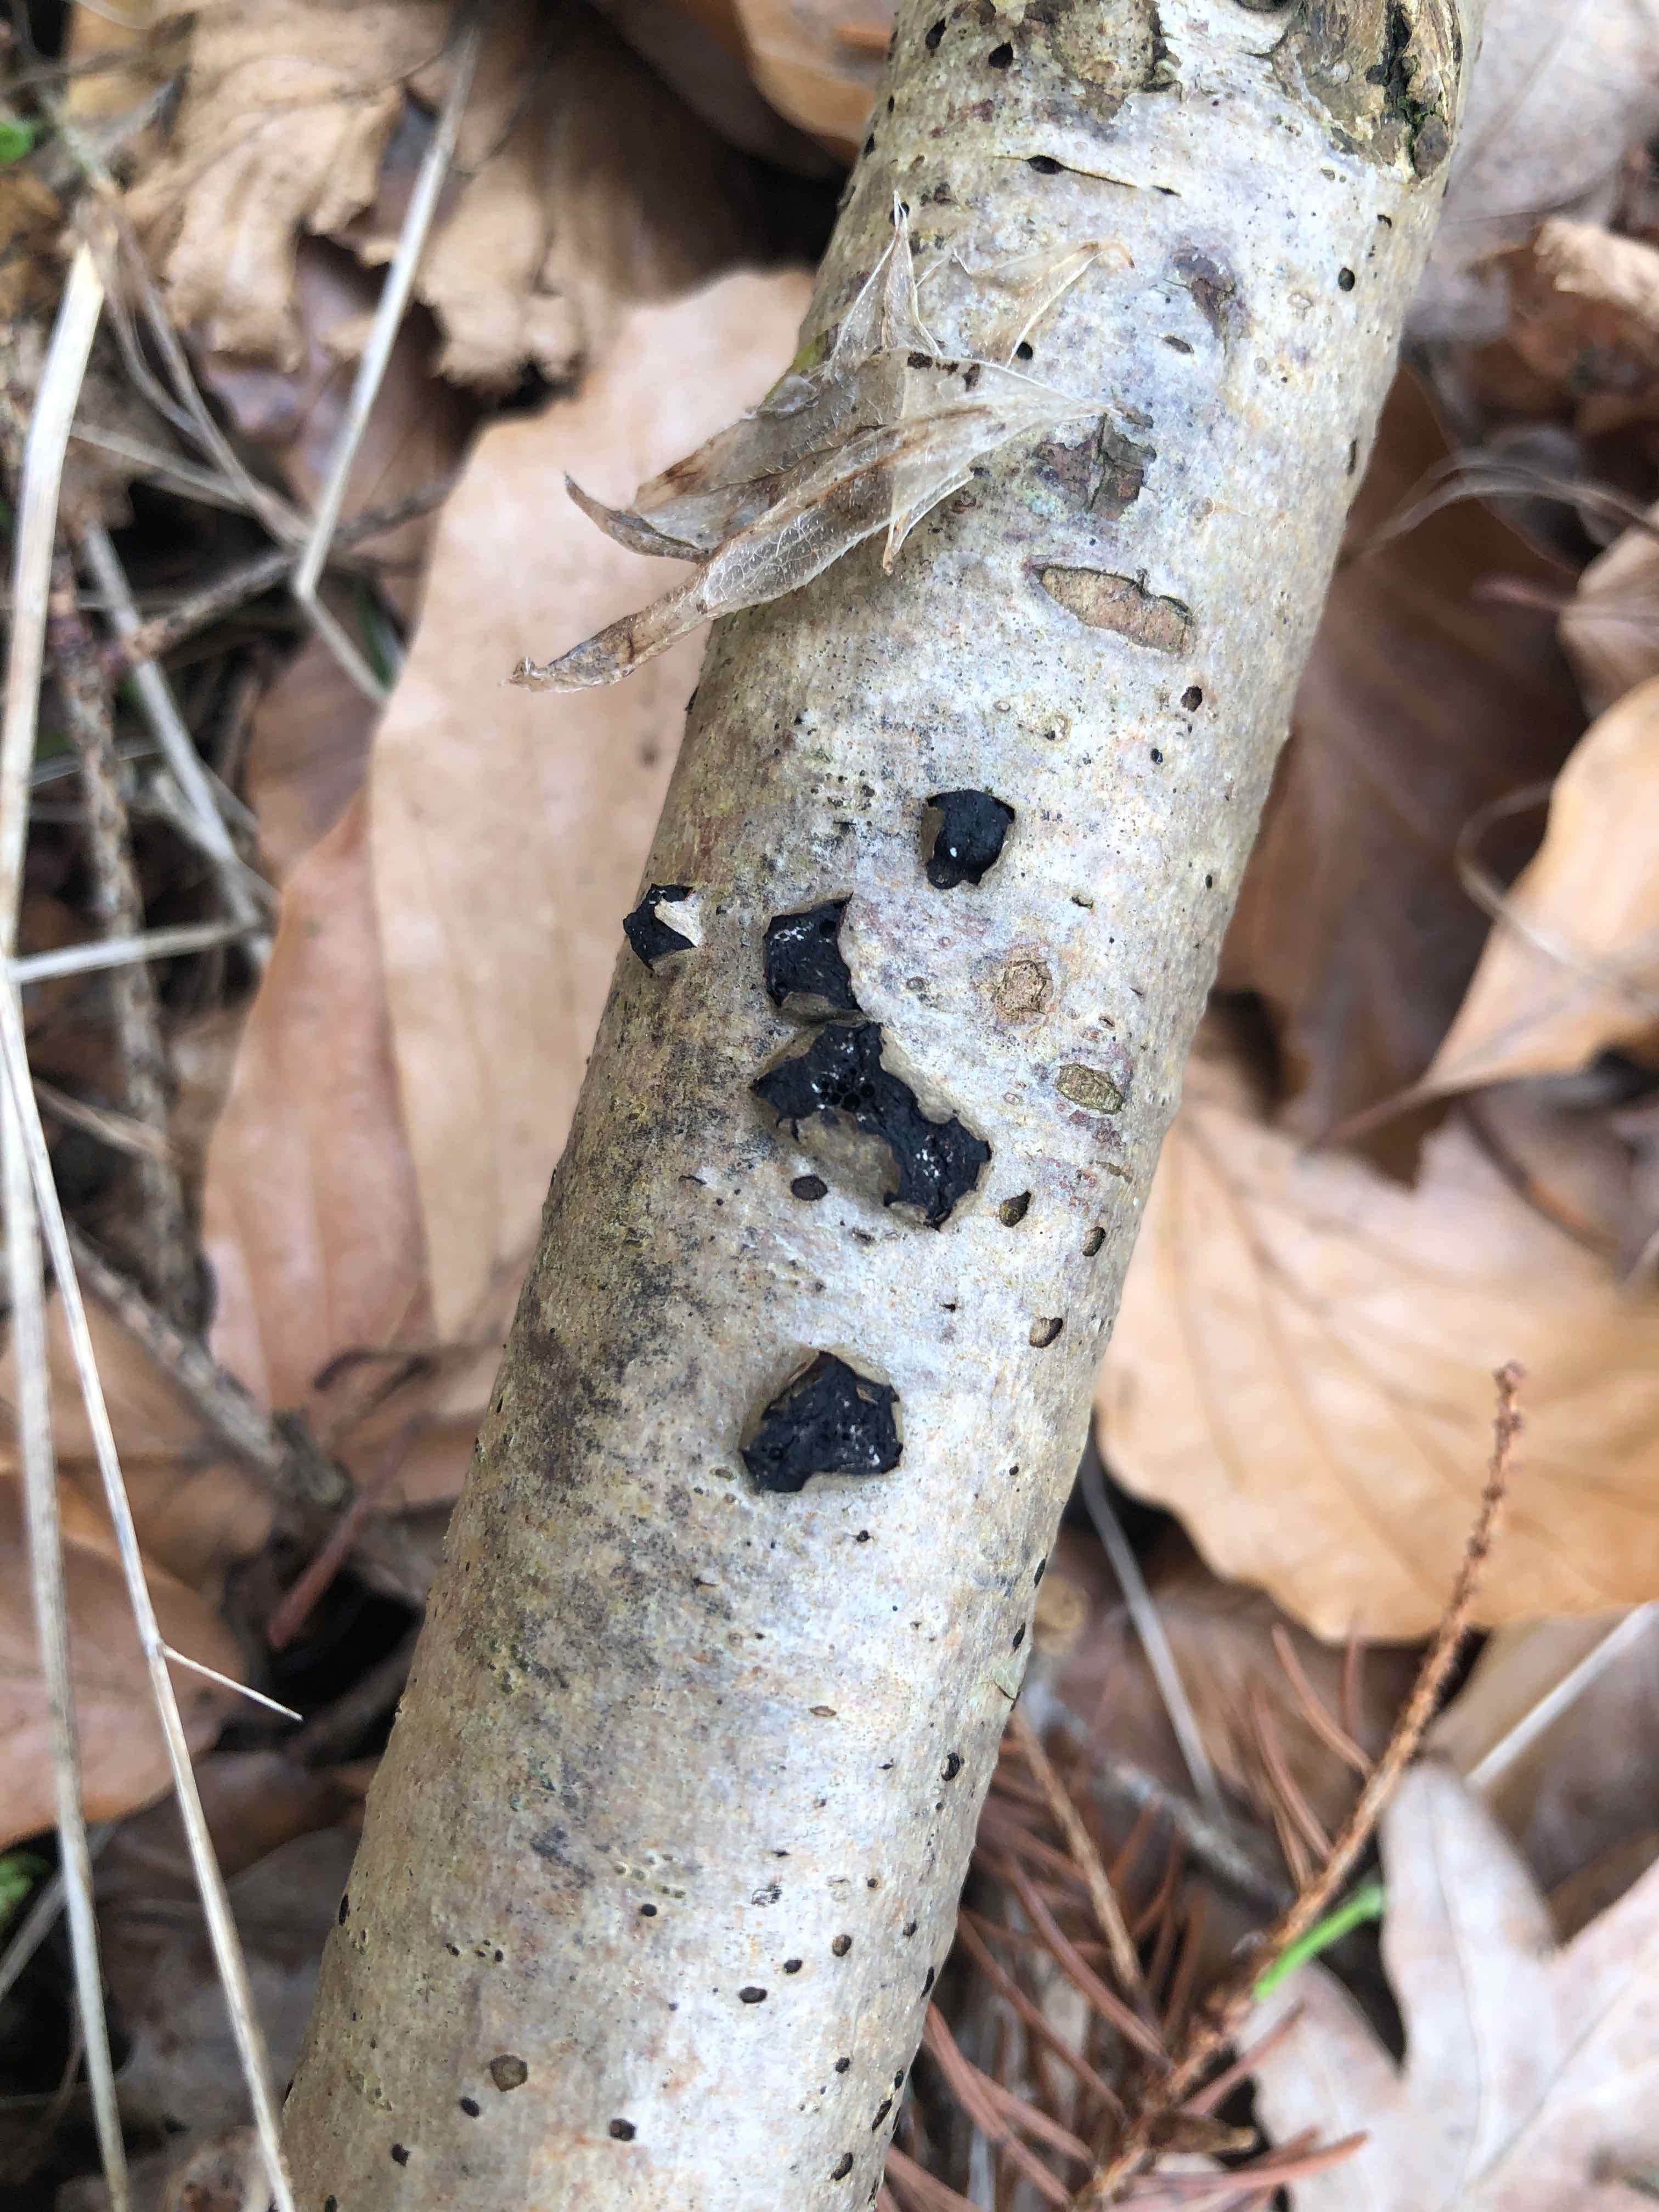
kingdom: Fungi
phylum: Ascomycota
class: Sordariomycetes
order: Xylariales
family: Diatrypaceae
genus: Diatrypella
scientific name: Diatrypella favacea
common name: klemt kulskorpe
